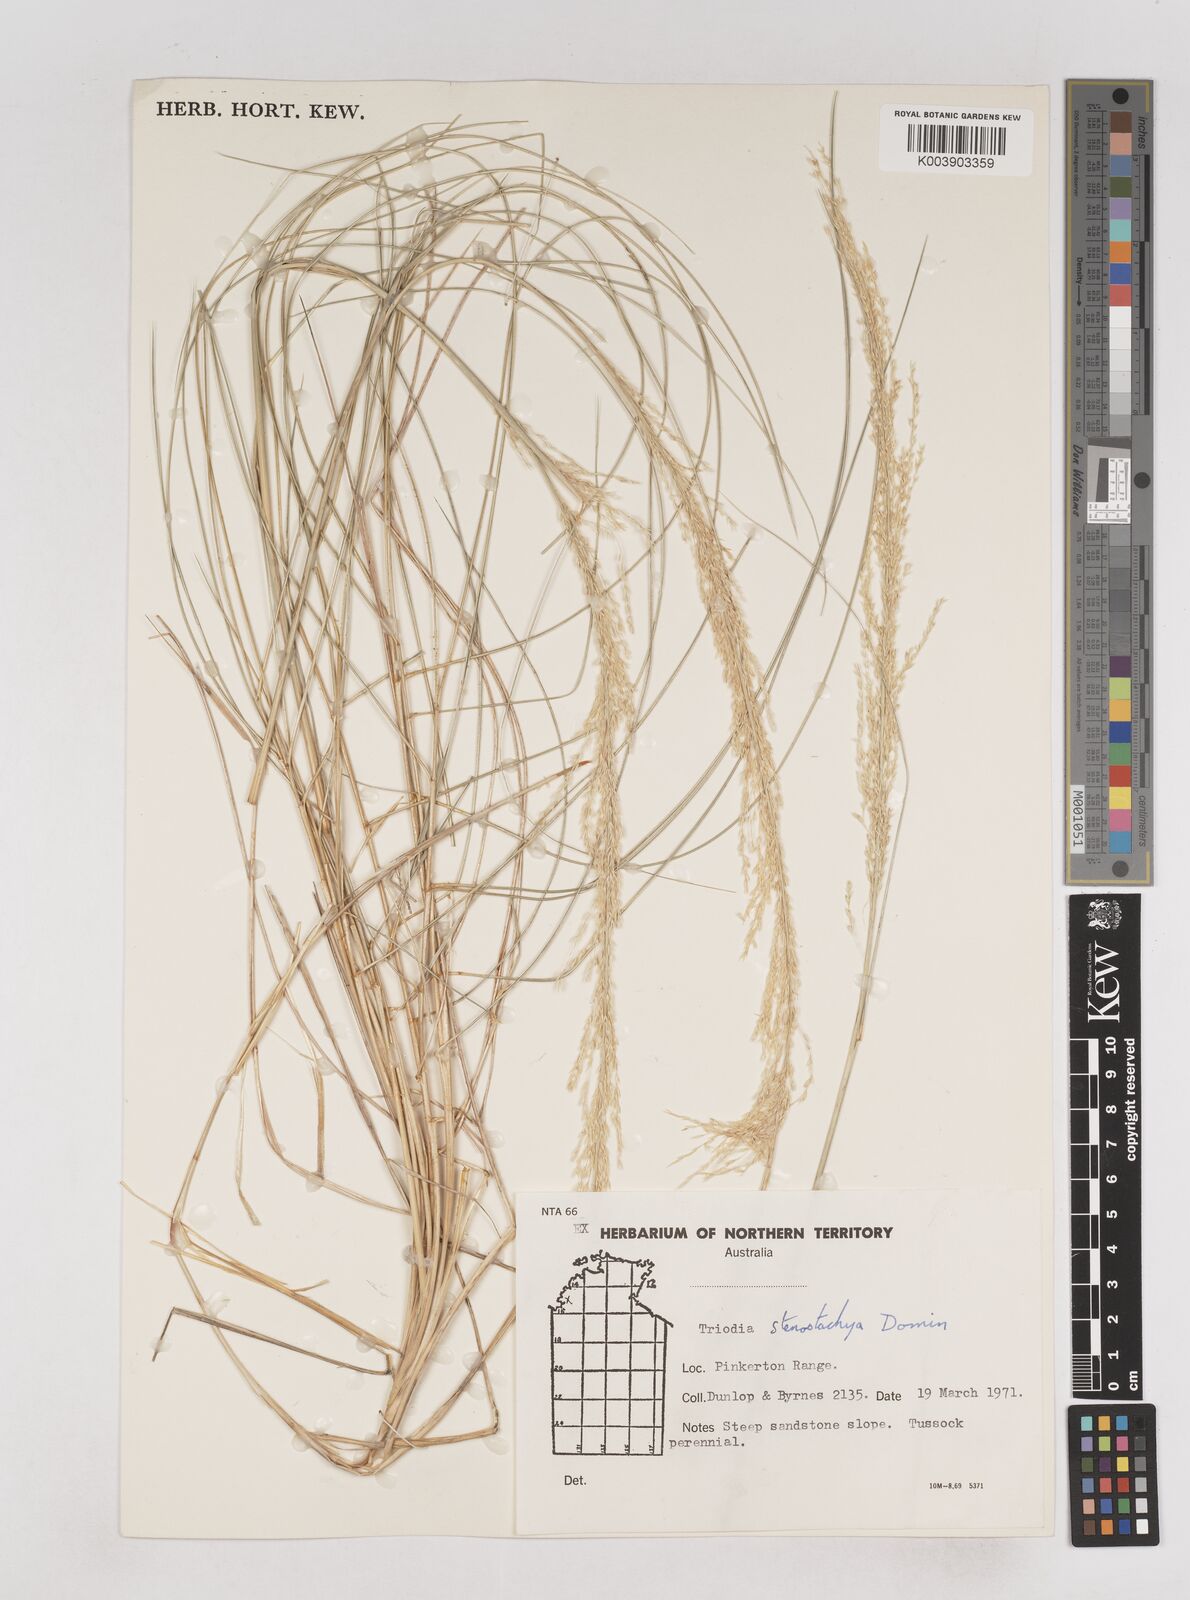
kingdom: Plantae
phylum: Tracheophyta
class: Liliopsida
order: Poales
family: Poaceae
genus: Triodia
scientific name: Triodia stenostachya
